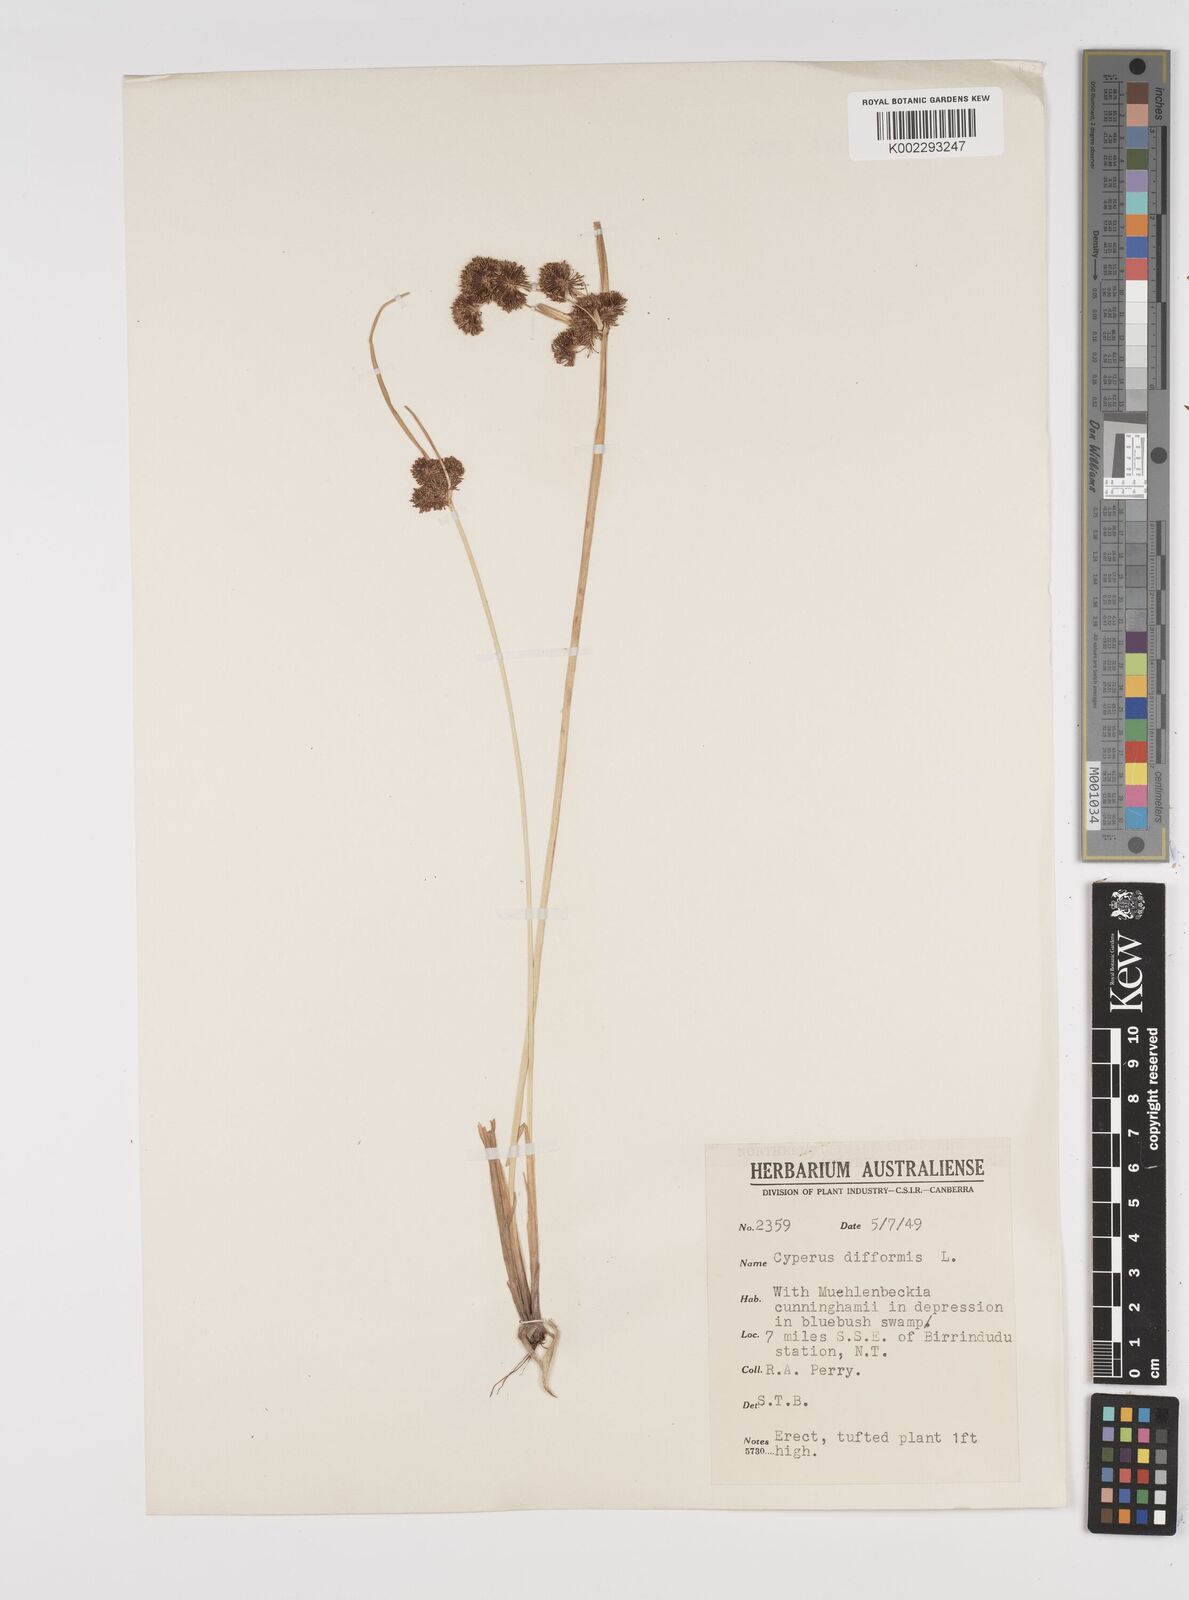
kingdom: Plantae
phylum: Tracheophyta
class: Liliopsida
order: Poales
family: Cyperaceae
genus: Cyperus
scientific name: Cyperus difformis
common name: Variable flatsedge
